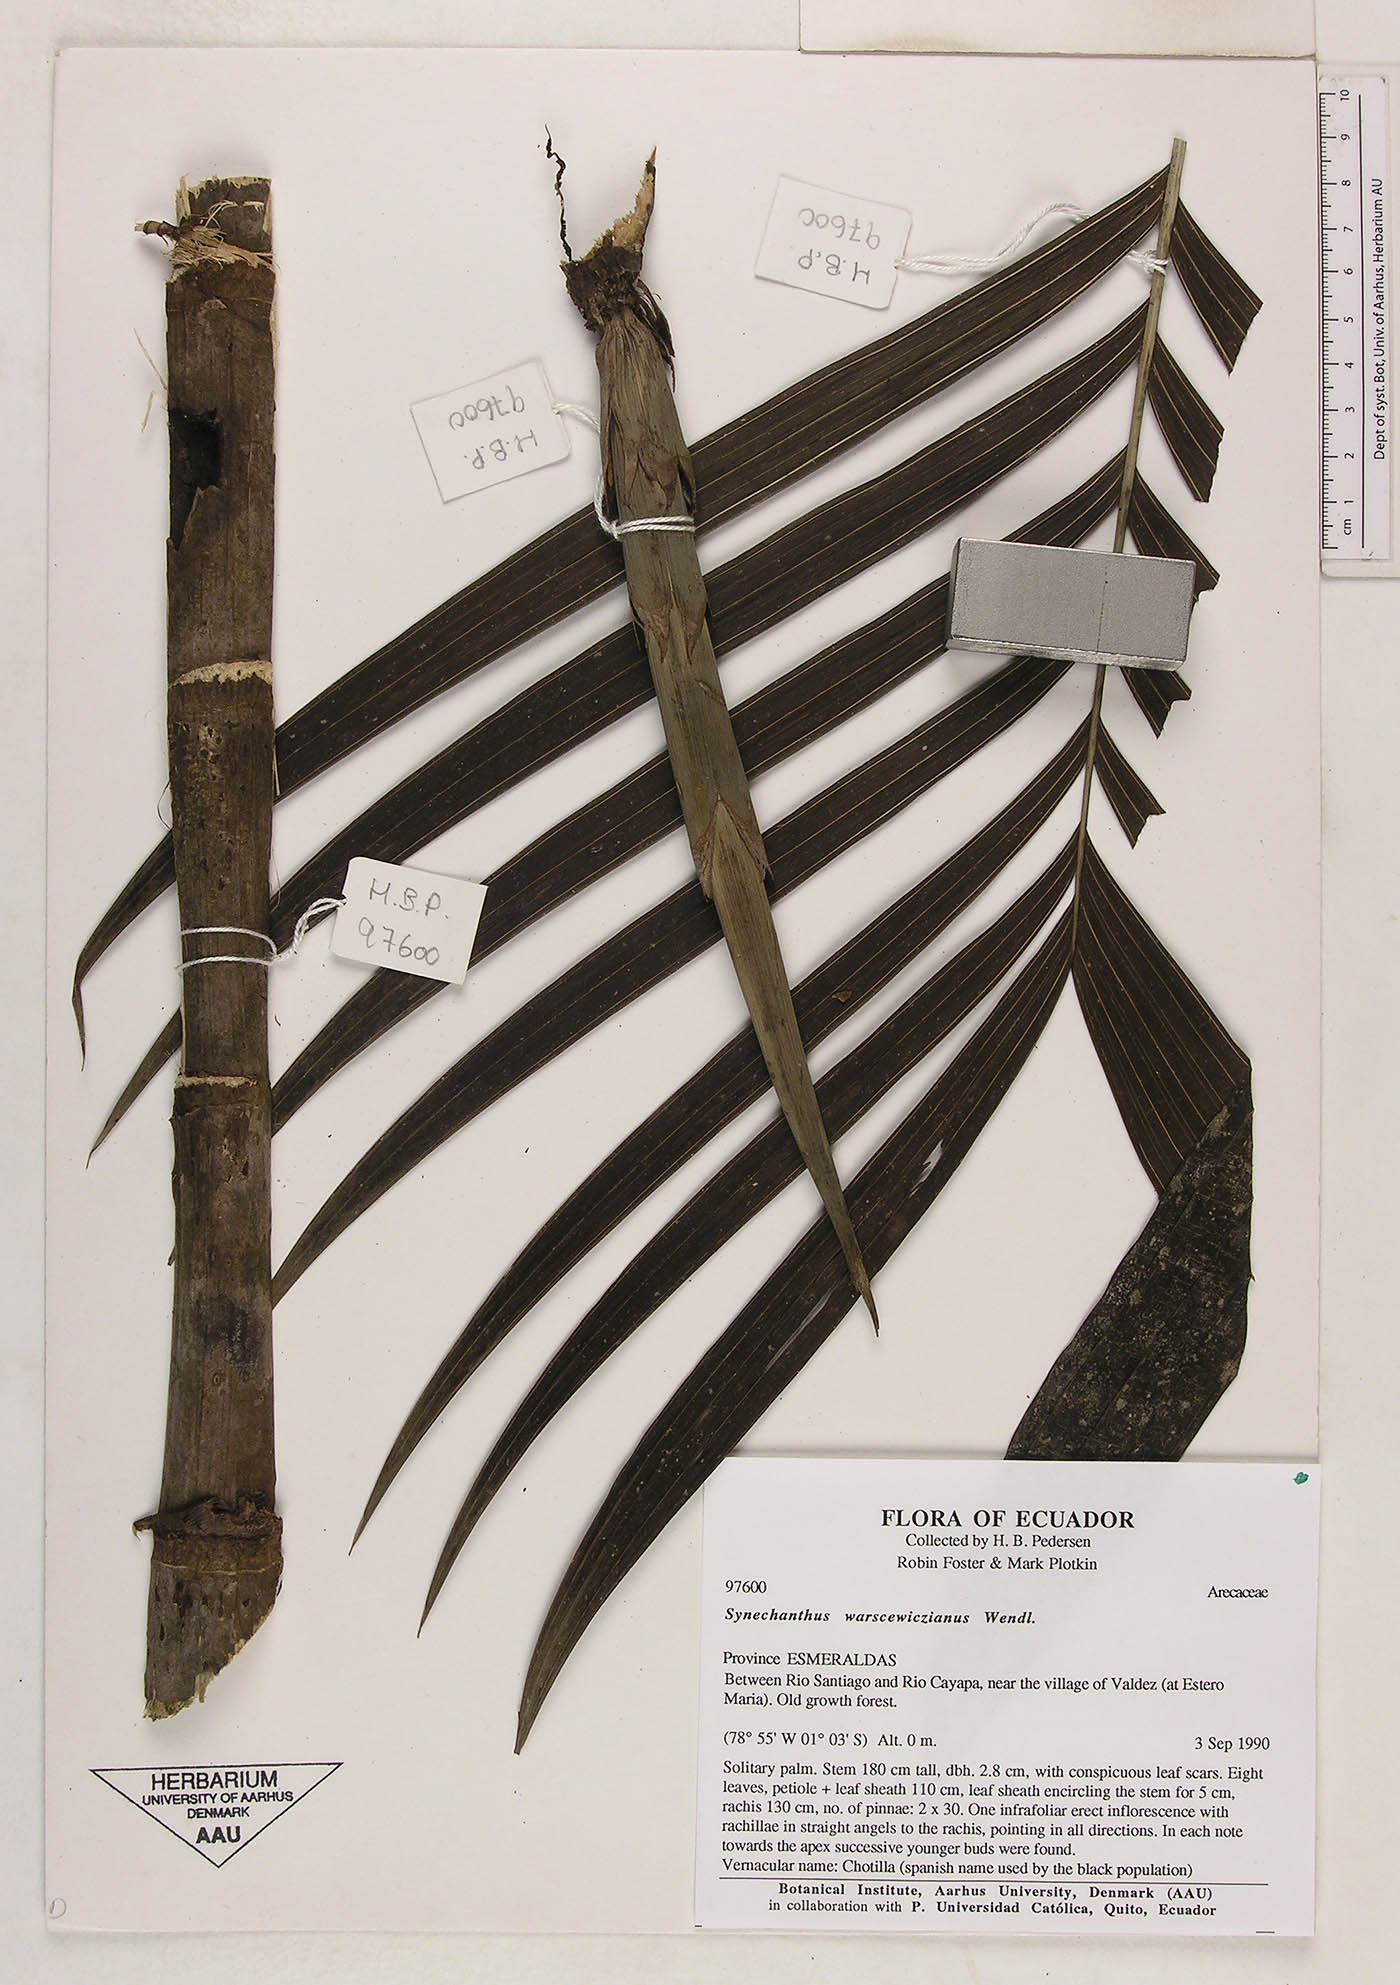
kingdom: Plantae
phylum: Tracheophyta
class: Liliopsida
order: Arecales
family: Arecaceae
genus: Synechanthus
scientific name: Synechanthus warscewiczianus
